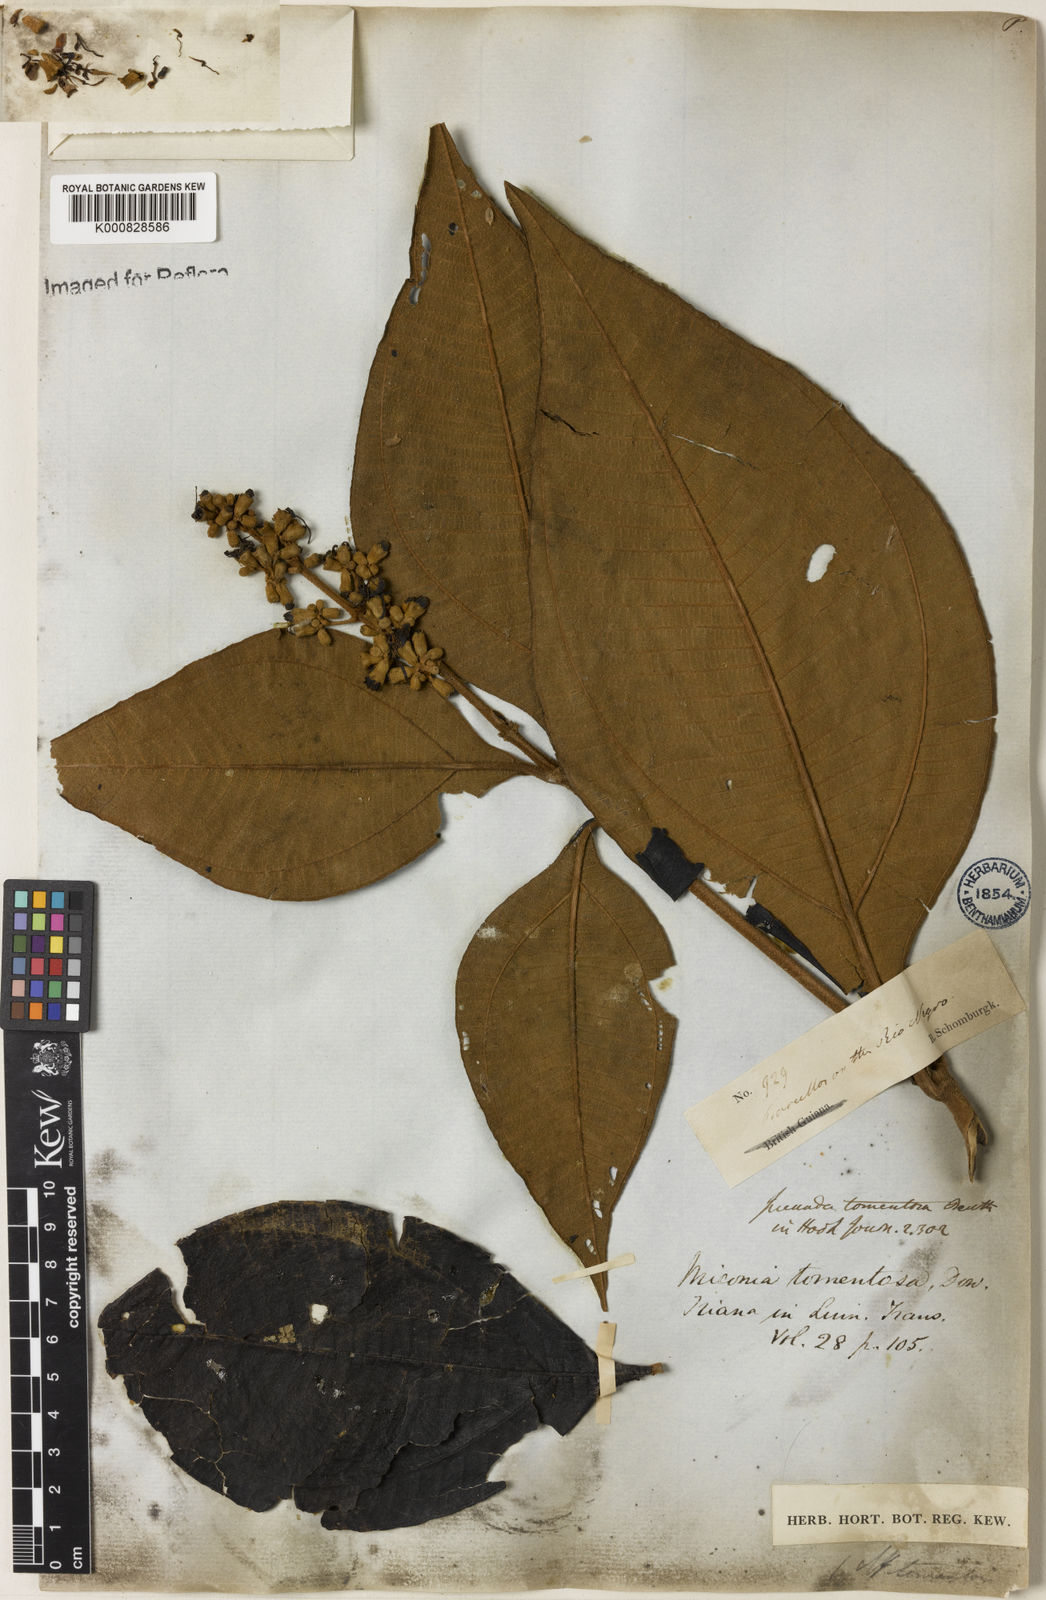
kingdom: Plantae
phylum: Tracheophyta
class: Magnoliopsida
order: Myrtales
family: Melastomataceae
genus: Miconia
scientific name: Miconia tomentosa
